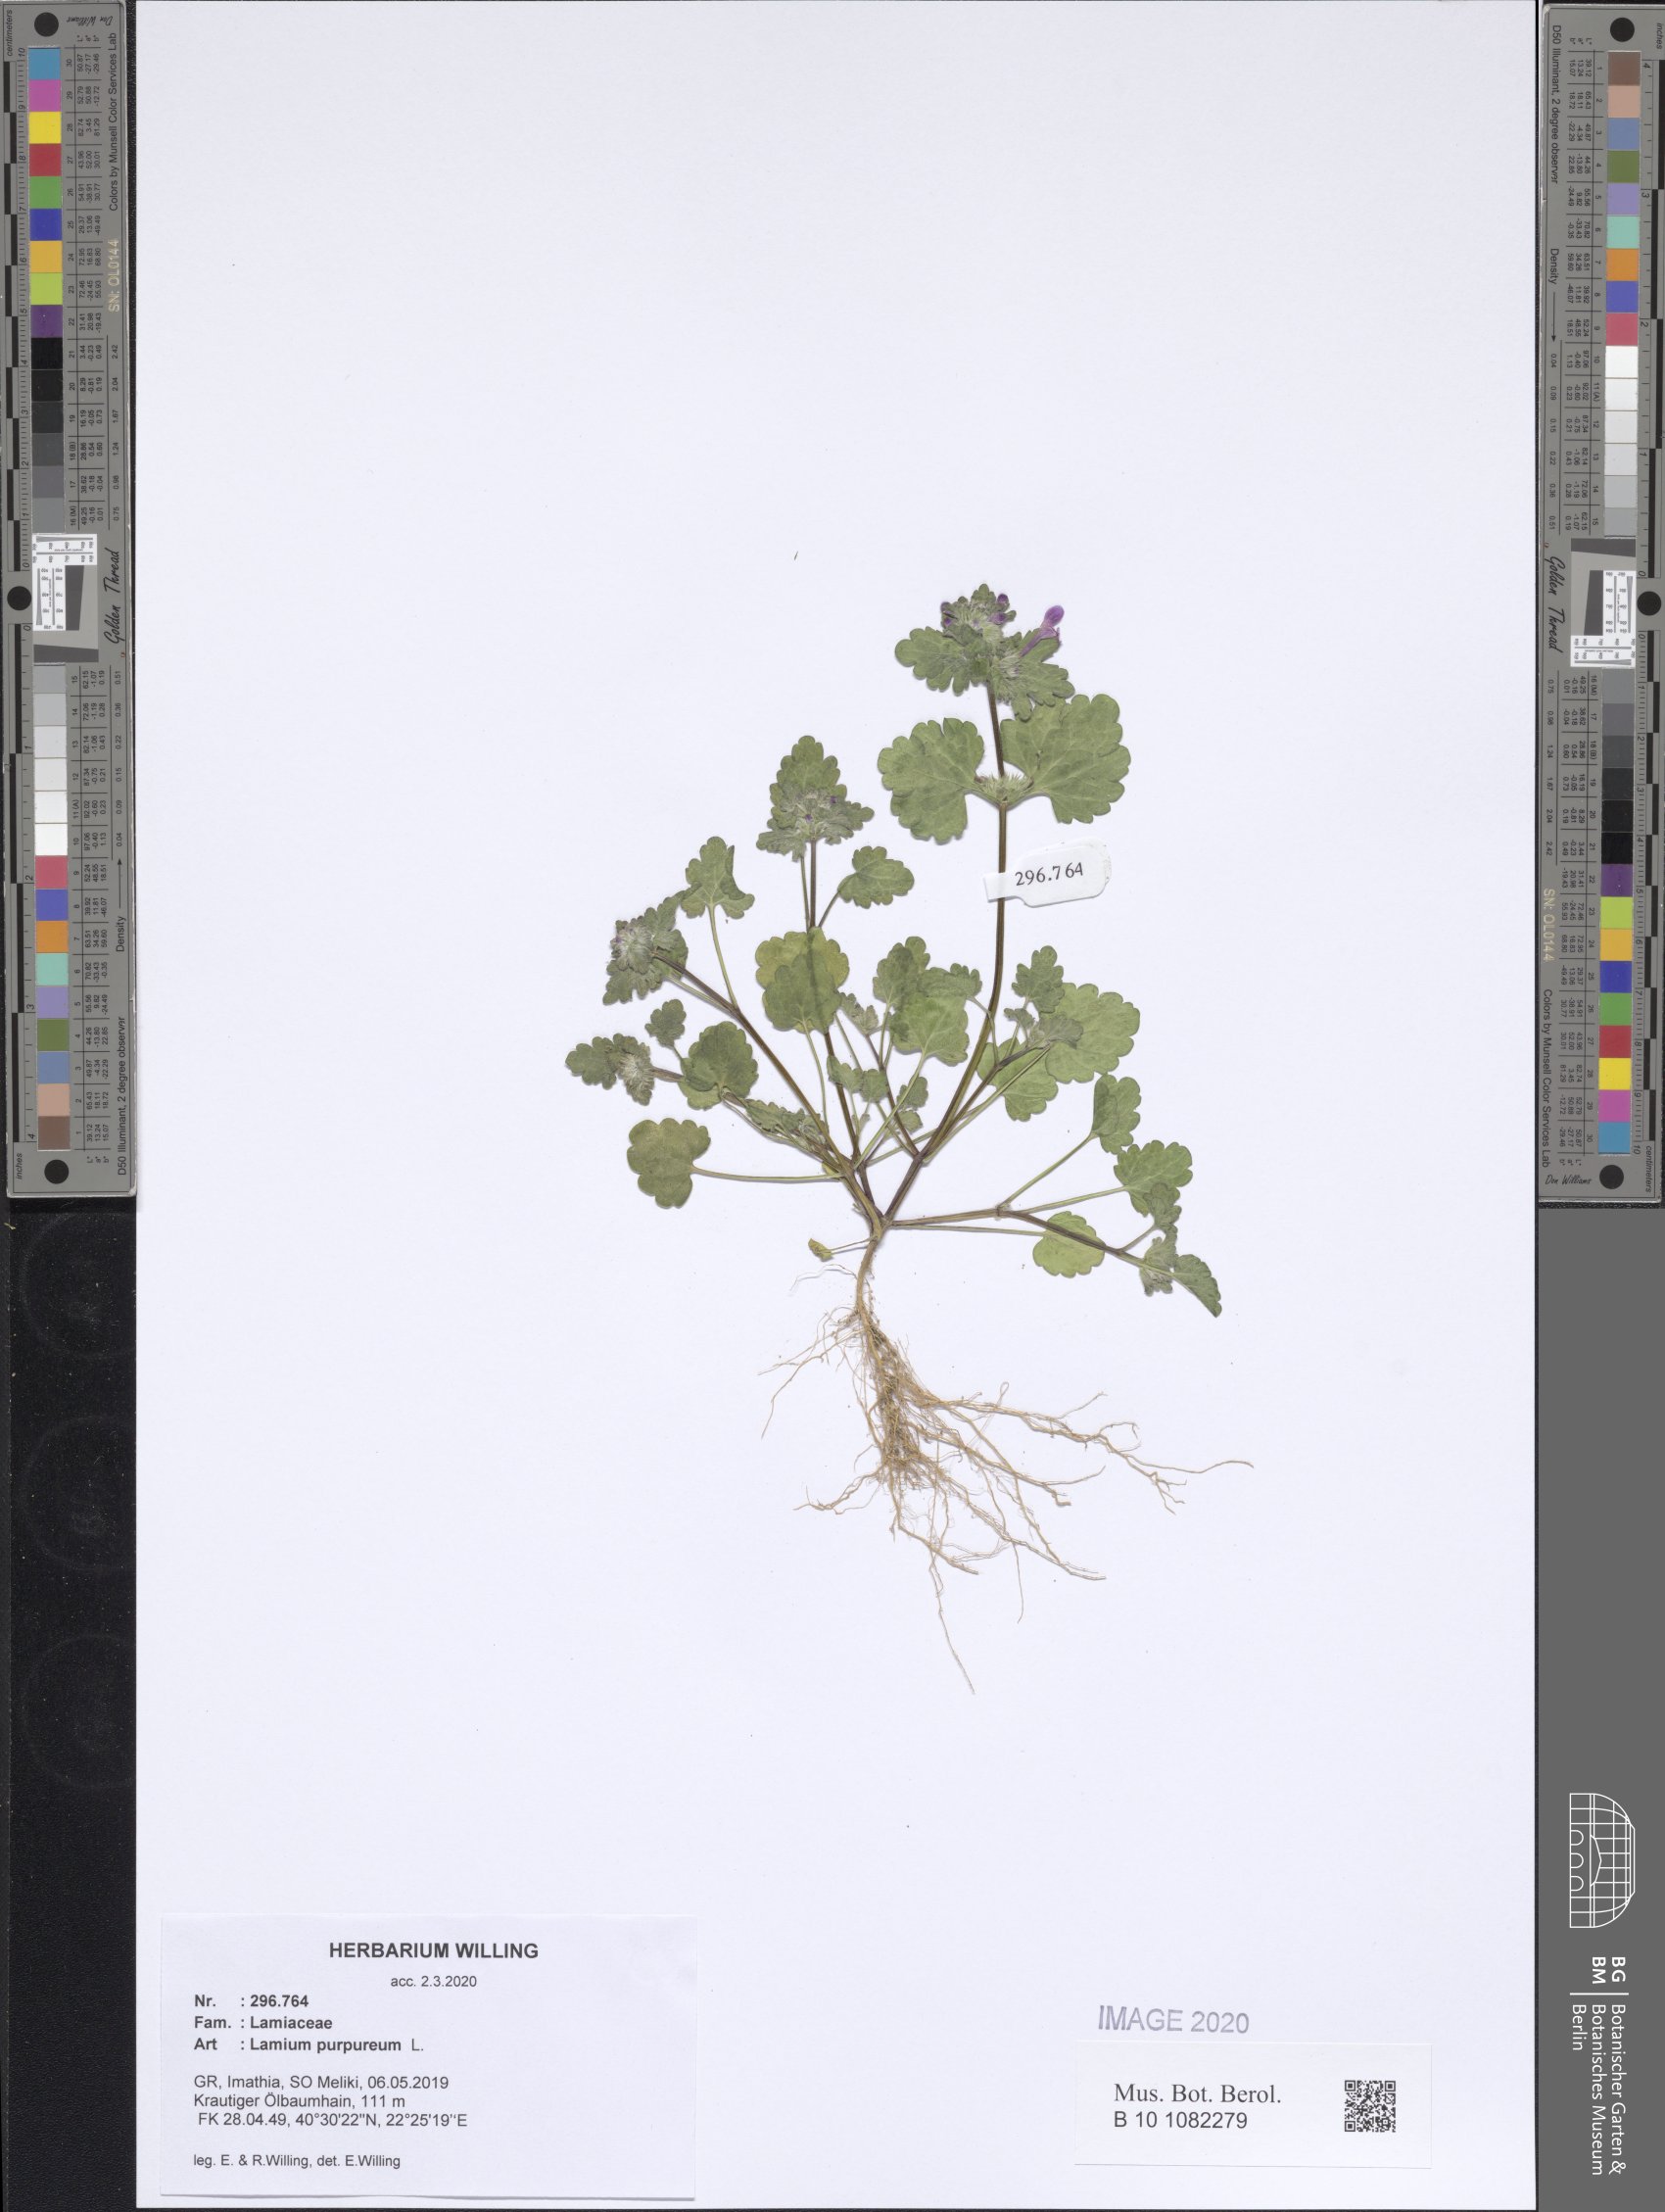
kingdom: Plantae
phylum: Tracheophyta
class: Magnoliopsida
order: Lamiales
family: Lamiaceae
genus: Lamium
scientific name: Lamium purpureum
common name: Red dead-nettle
